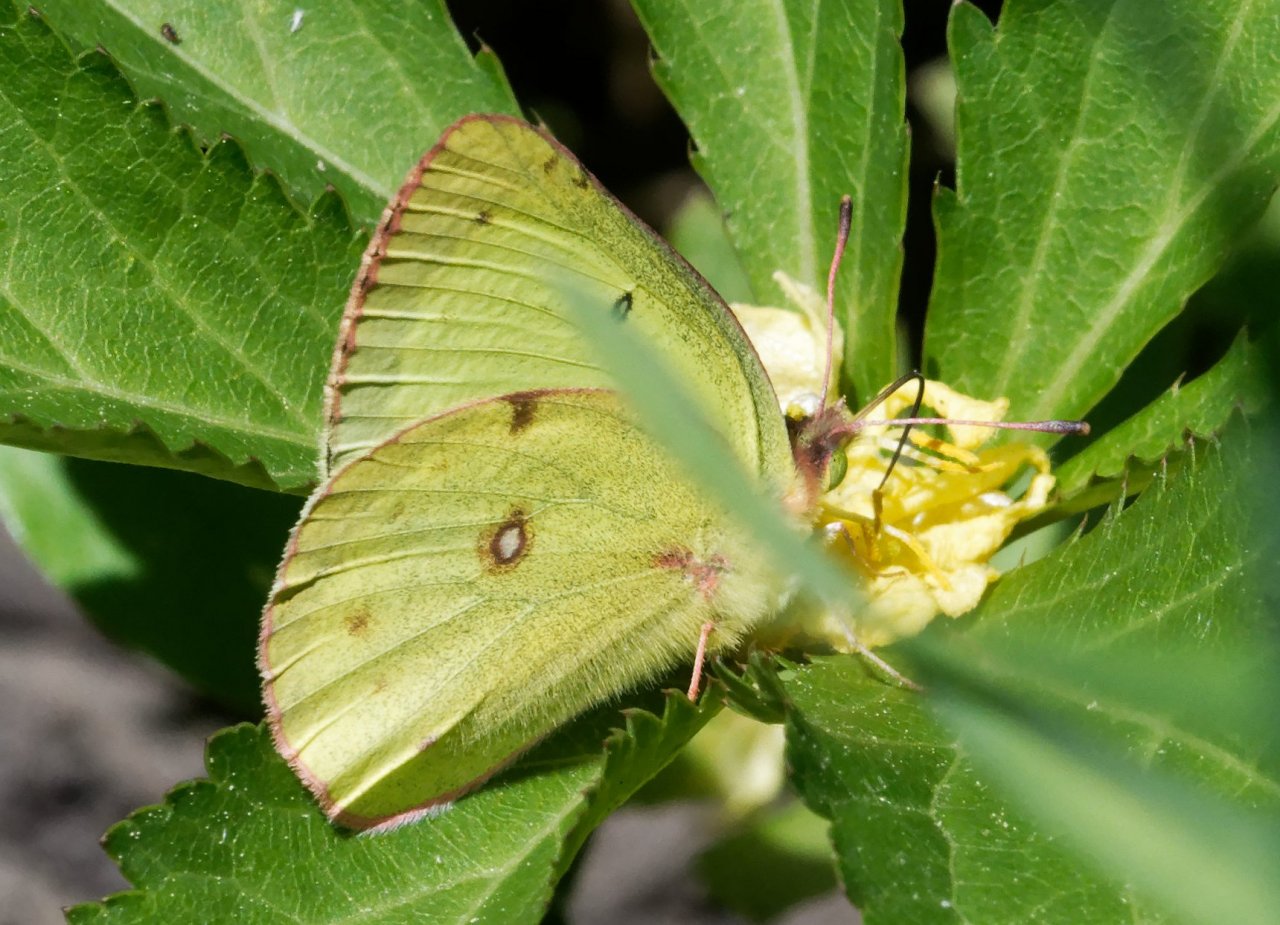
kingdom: Animalia
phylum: Arthropoda
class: Insecta
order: Lepidoptera
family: Pieridae
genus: Colias
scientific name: Colias philodice
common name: Clouded Sulphur
